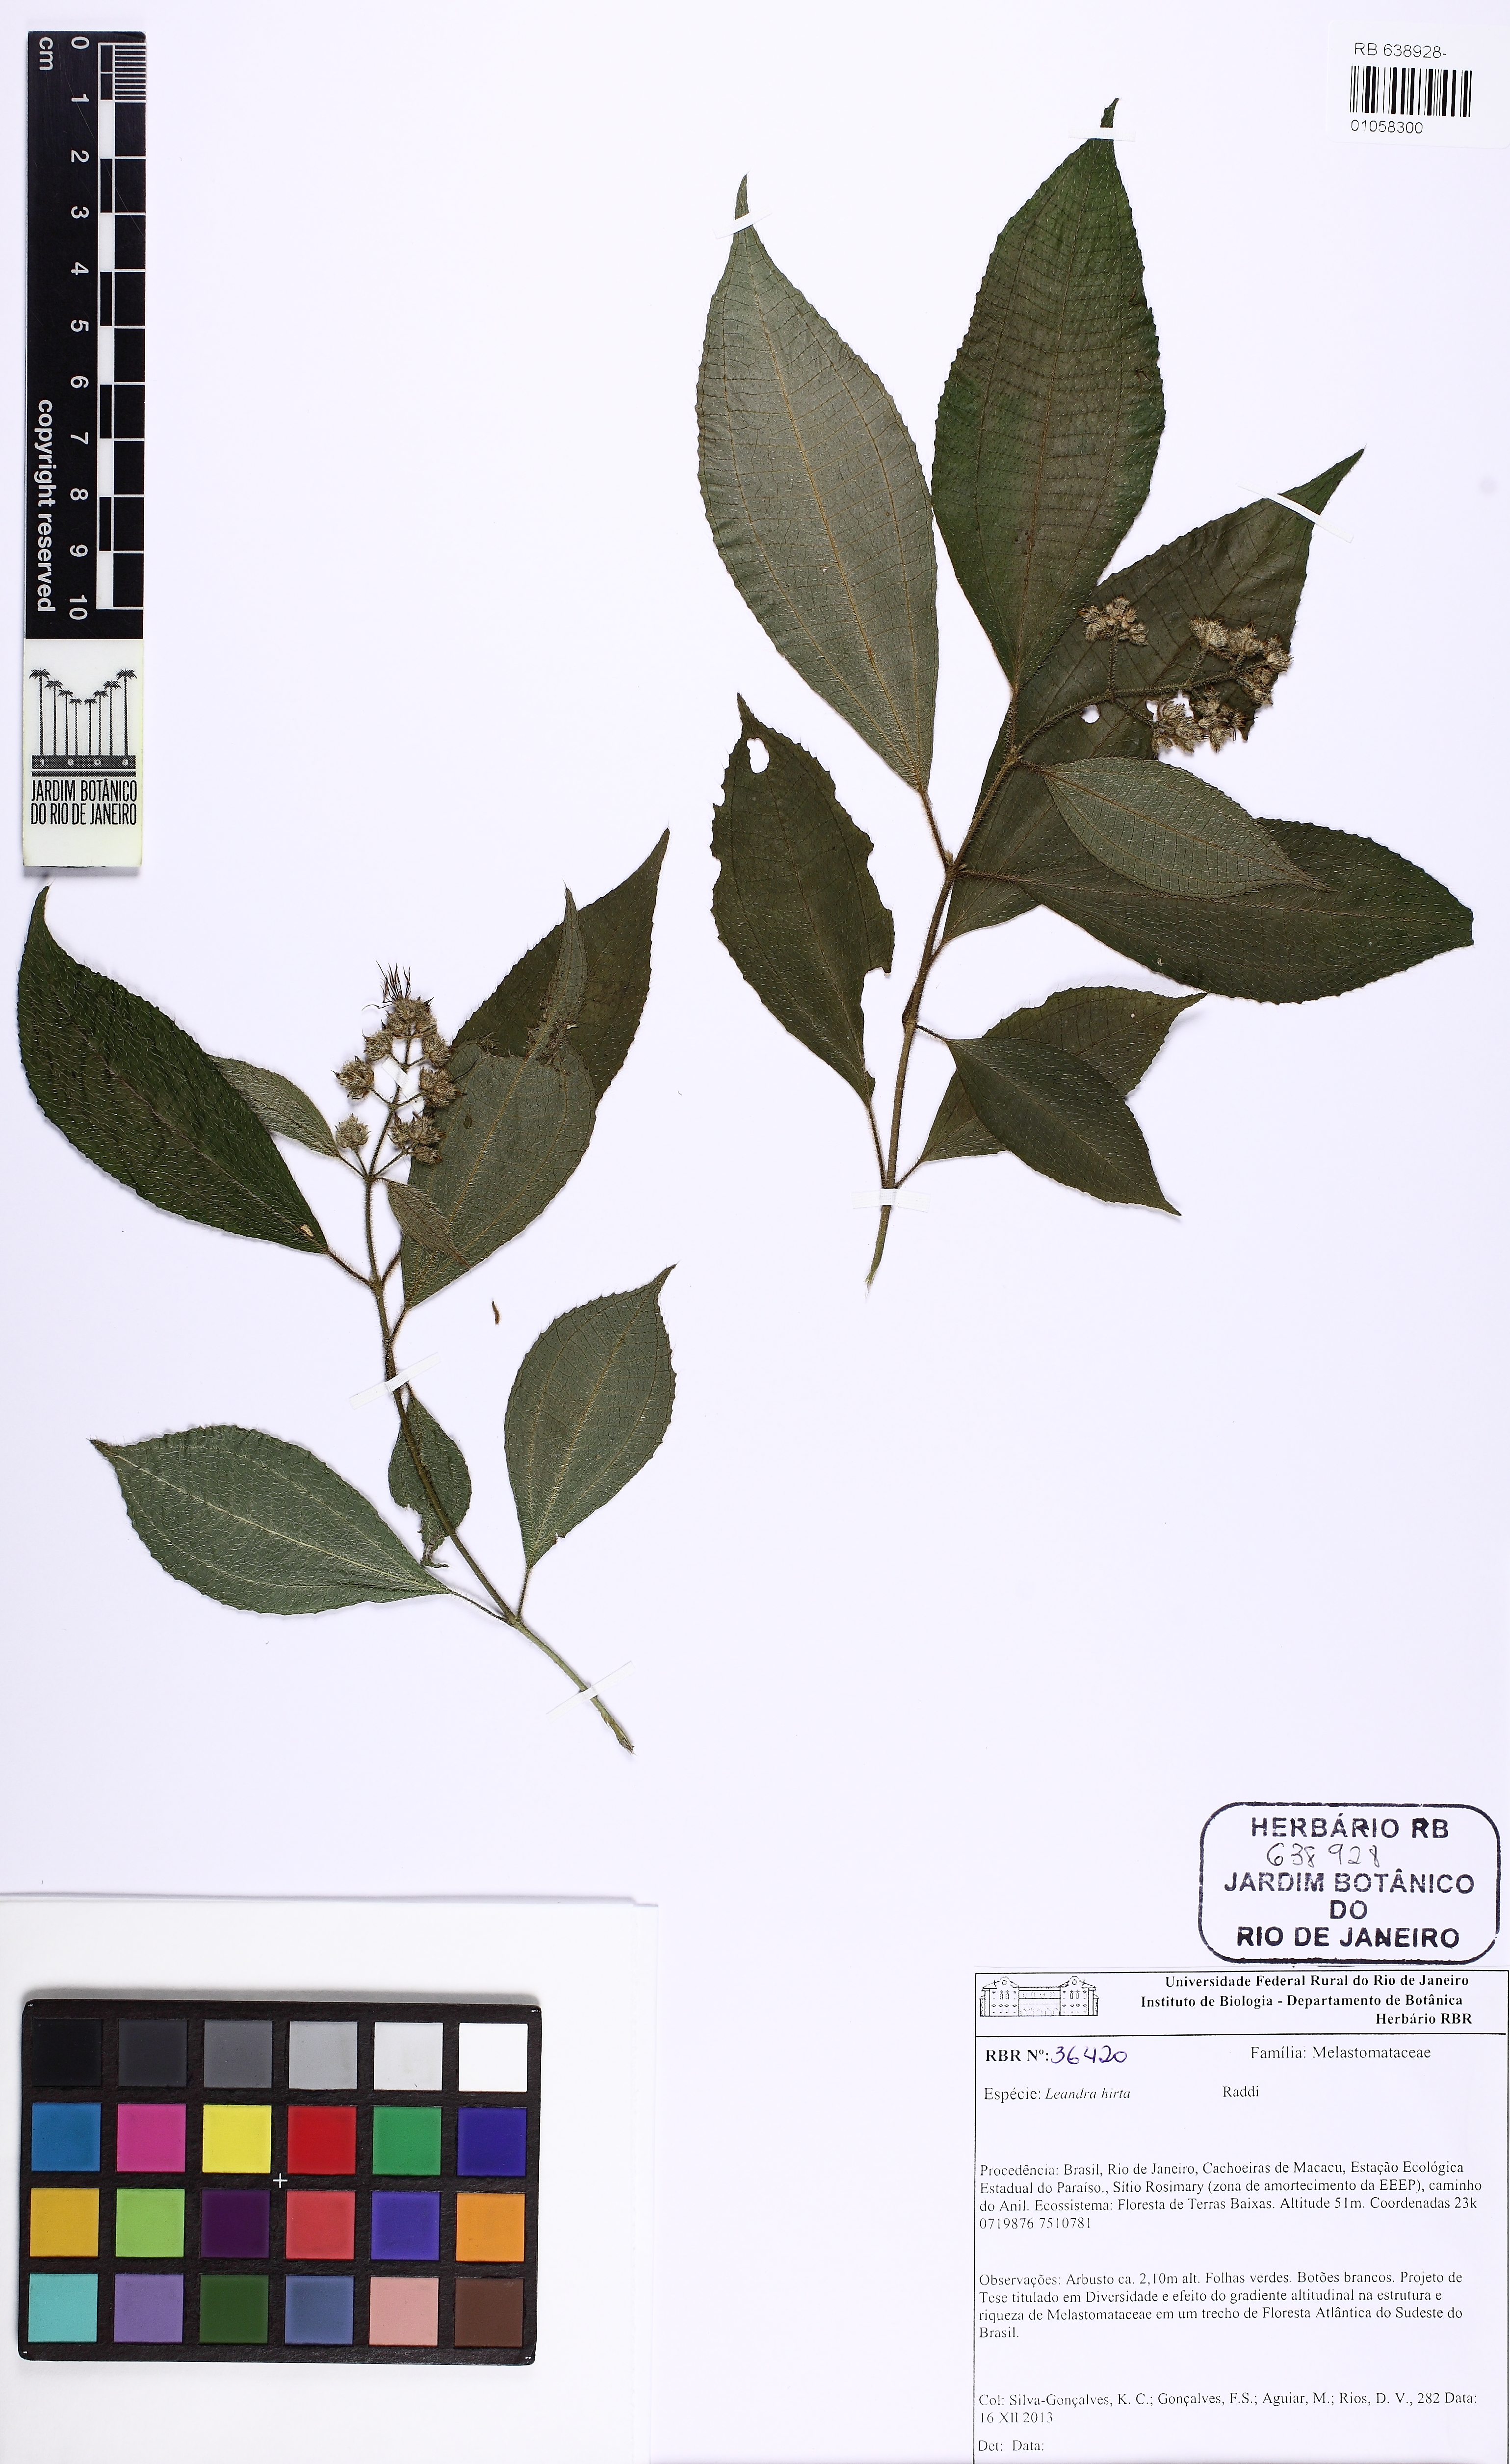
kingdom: Plantae
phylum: Tracheophyta
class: Magnoliopsida
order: Myrtales
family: Melastomataceae
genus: Miconia
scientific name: Miconia dubia
